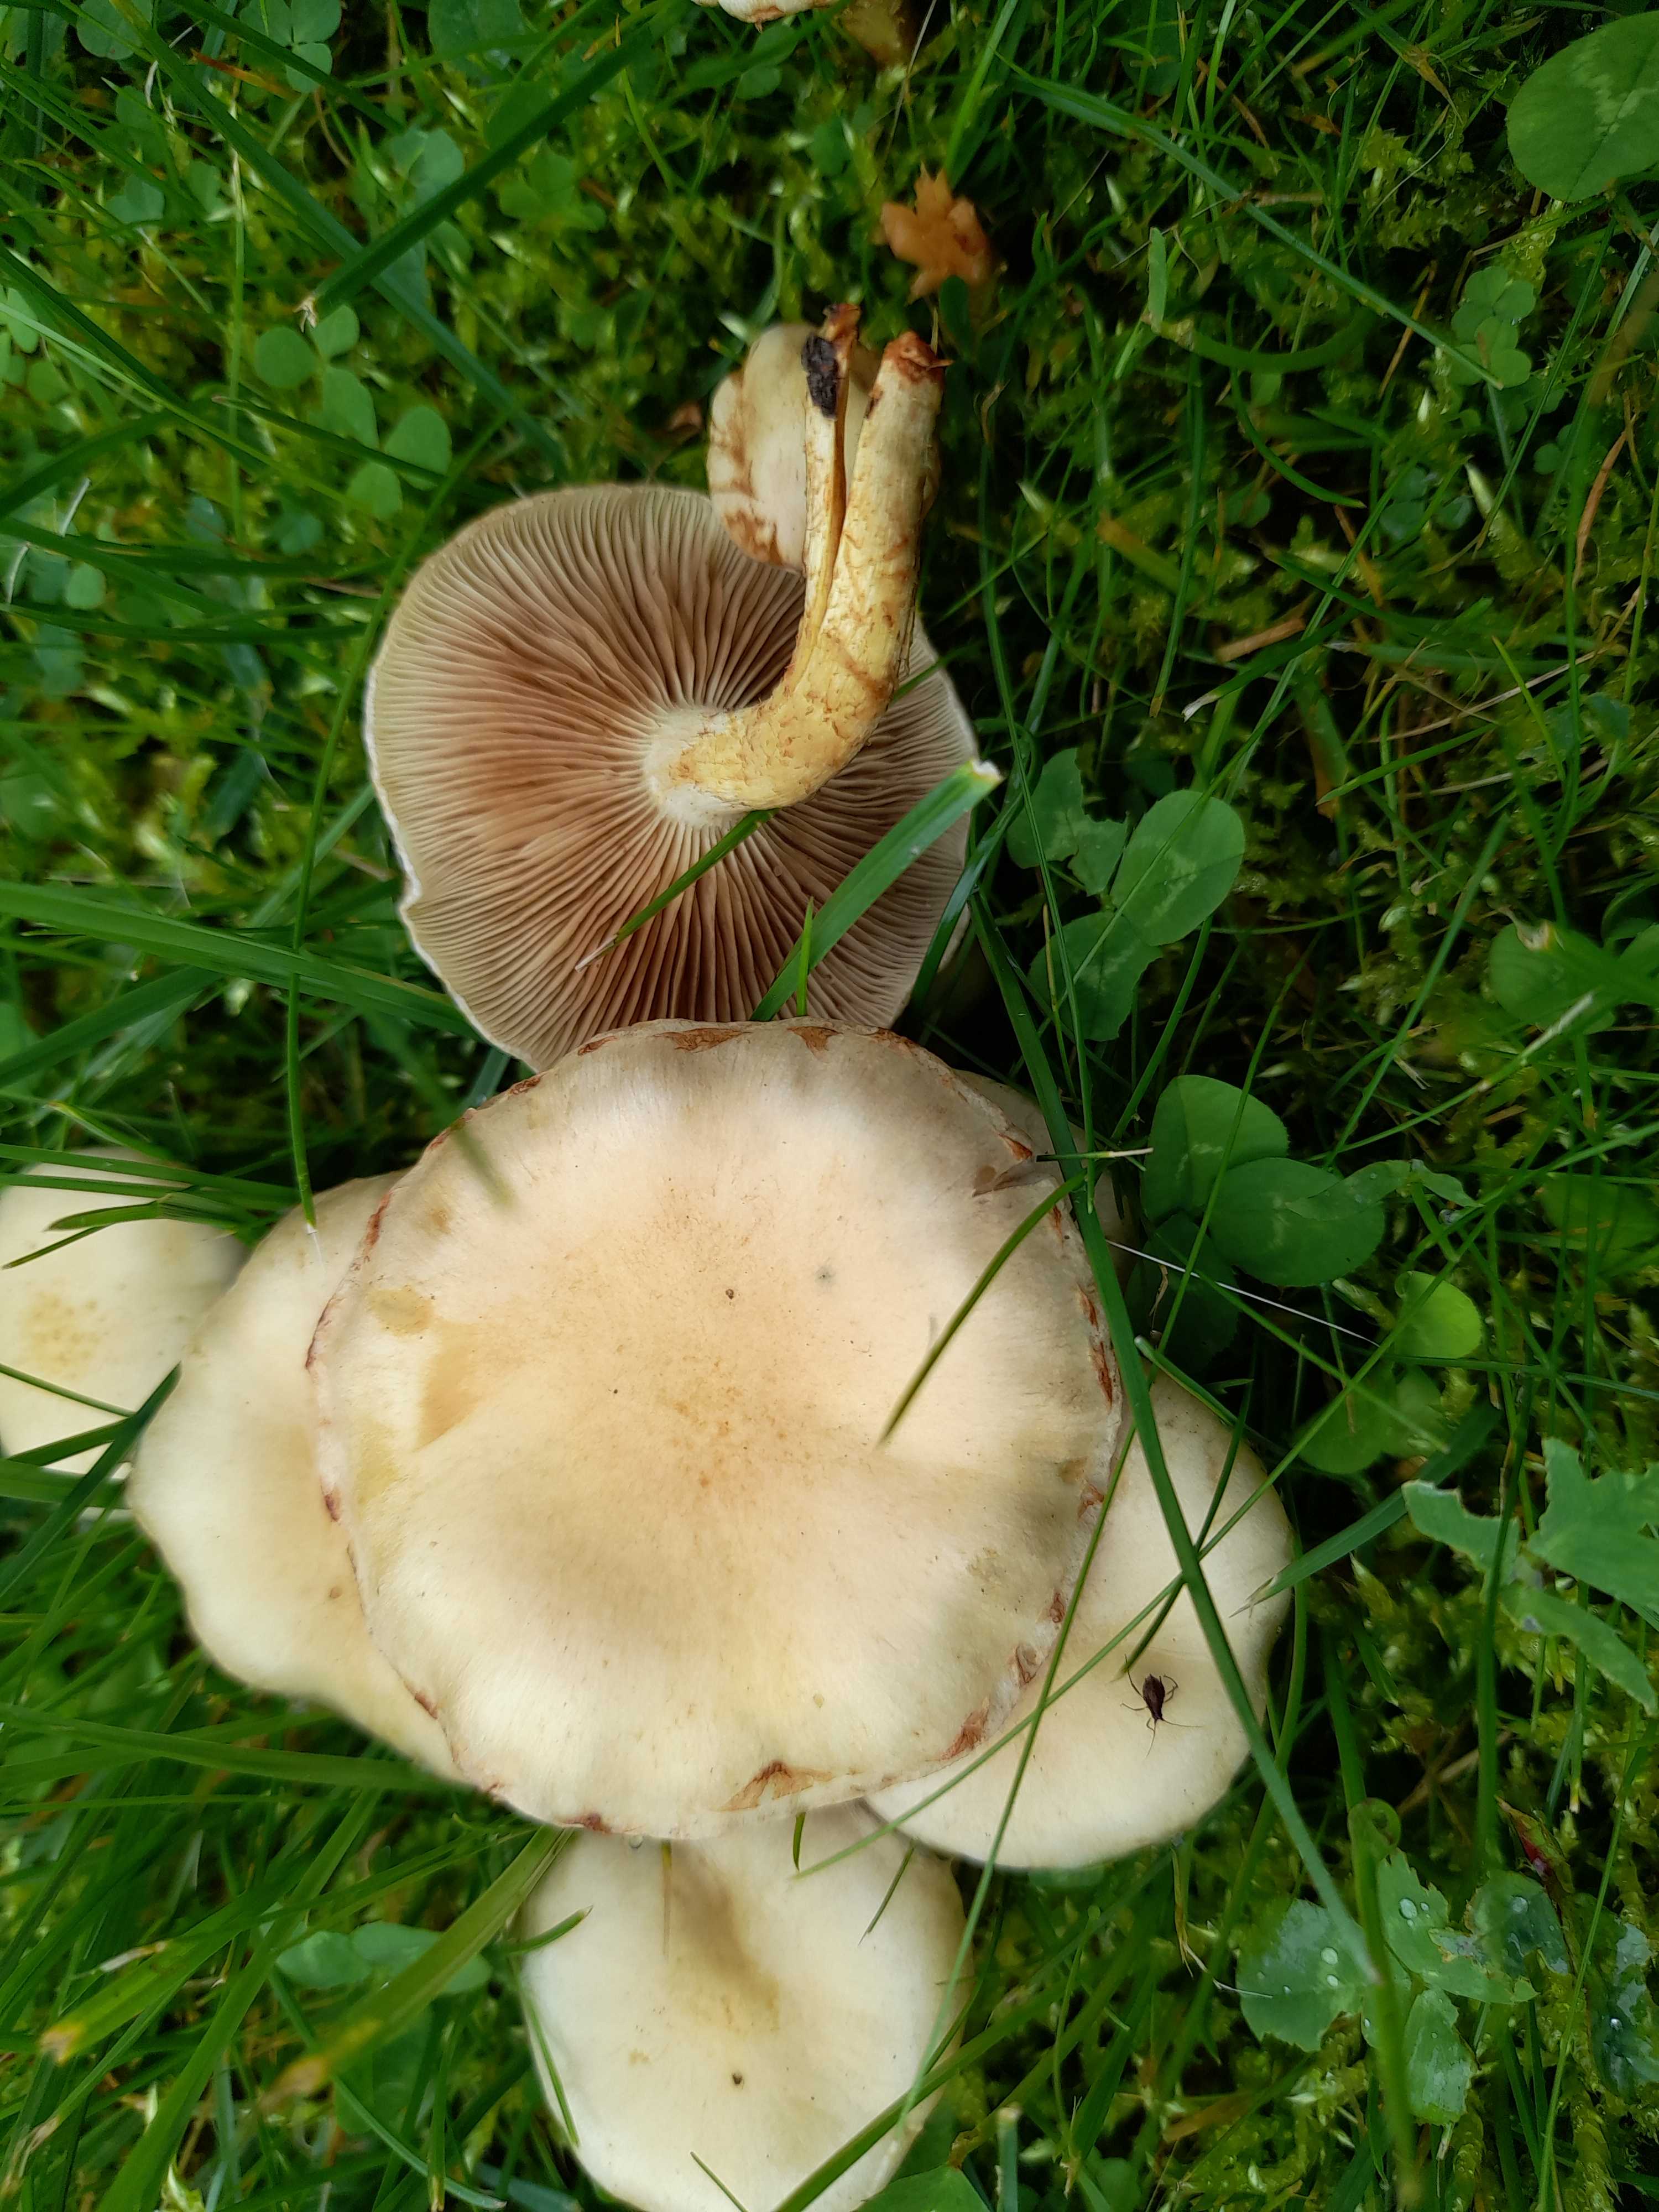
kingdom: Fungi
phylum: Basidiomycota
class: Agaricomycetes
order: Agaricales
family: Strophariaceae
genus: Pholiota
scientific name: Pholiota gummosa
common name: grøngul skælhat
